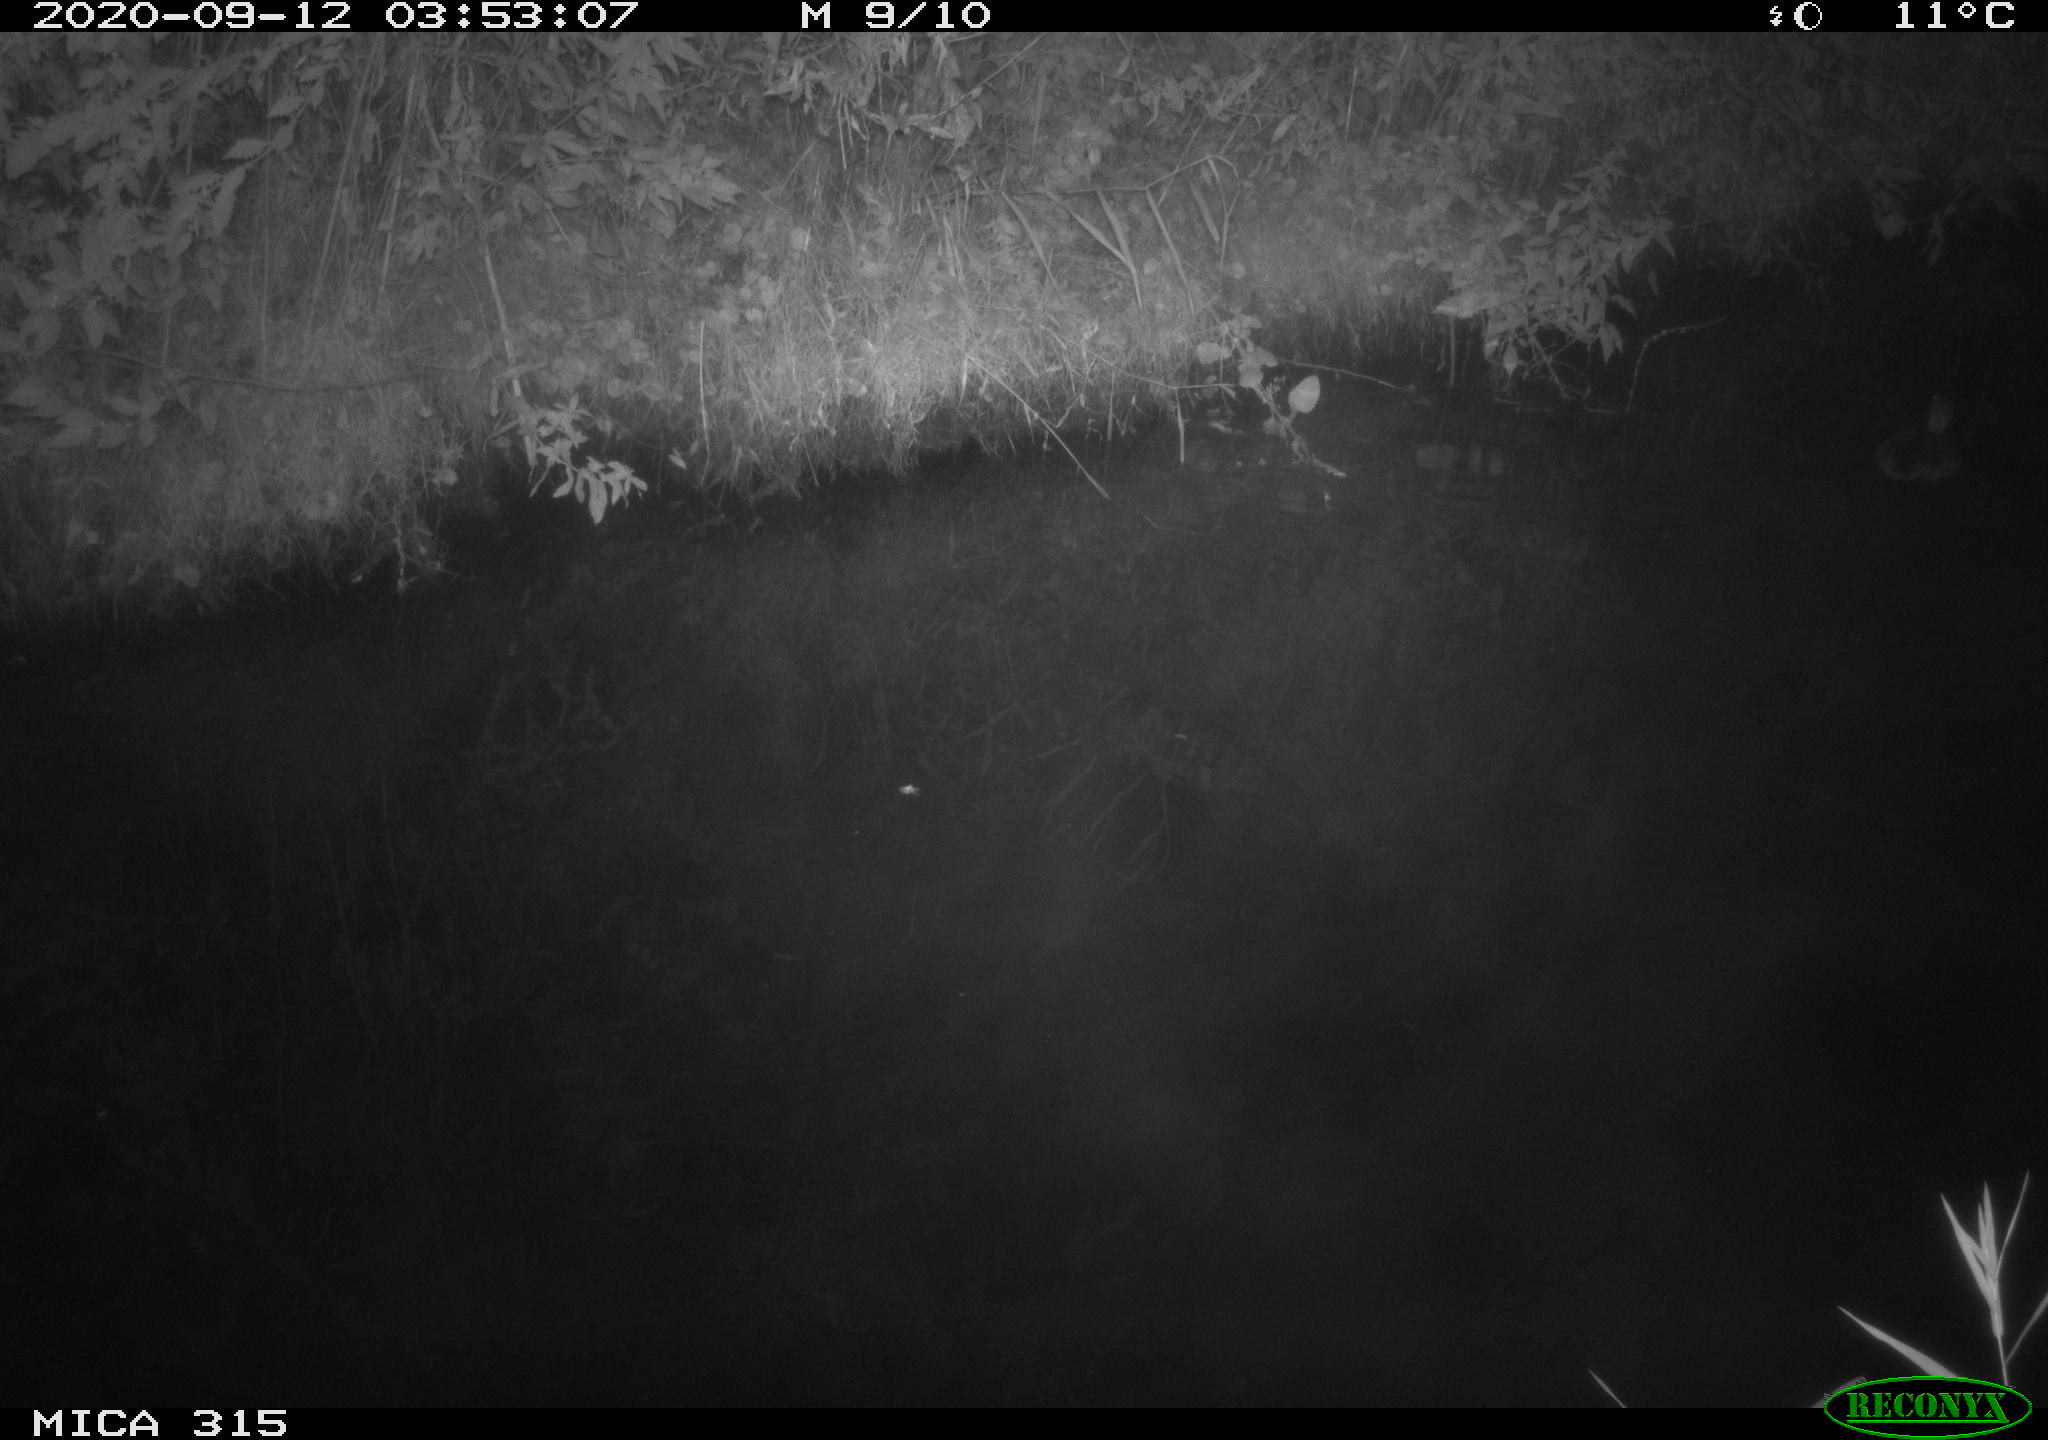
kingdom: Animalia
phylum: Chordata
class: Aves
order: Anseriformes
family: Anatidae
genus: Anas
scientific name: Anas platyrhynchos
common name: Mallard
